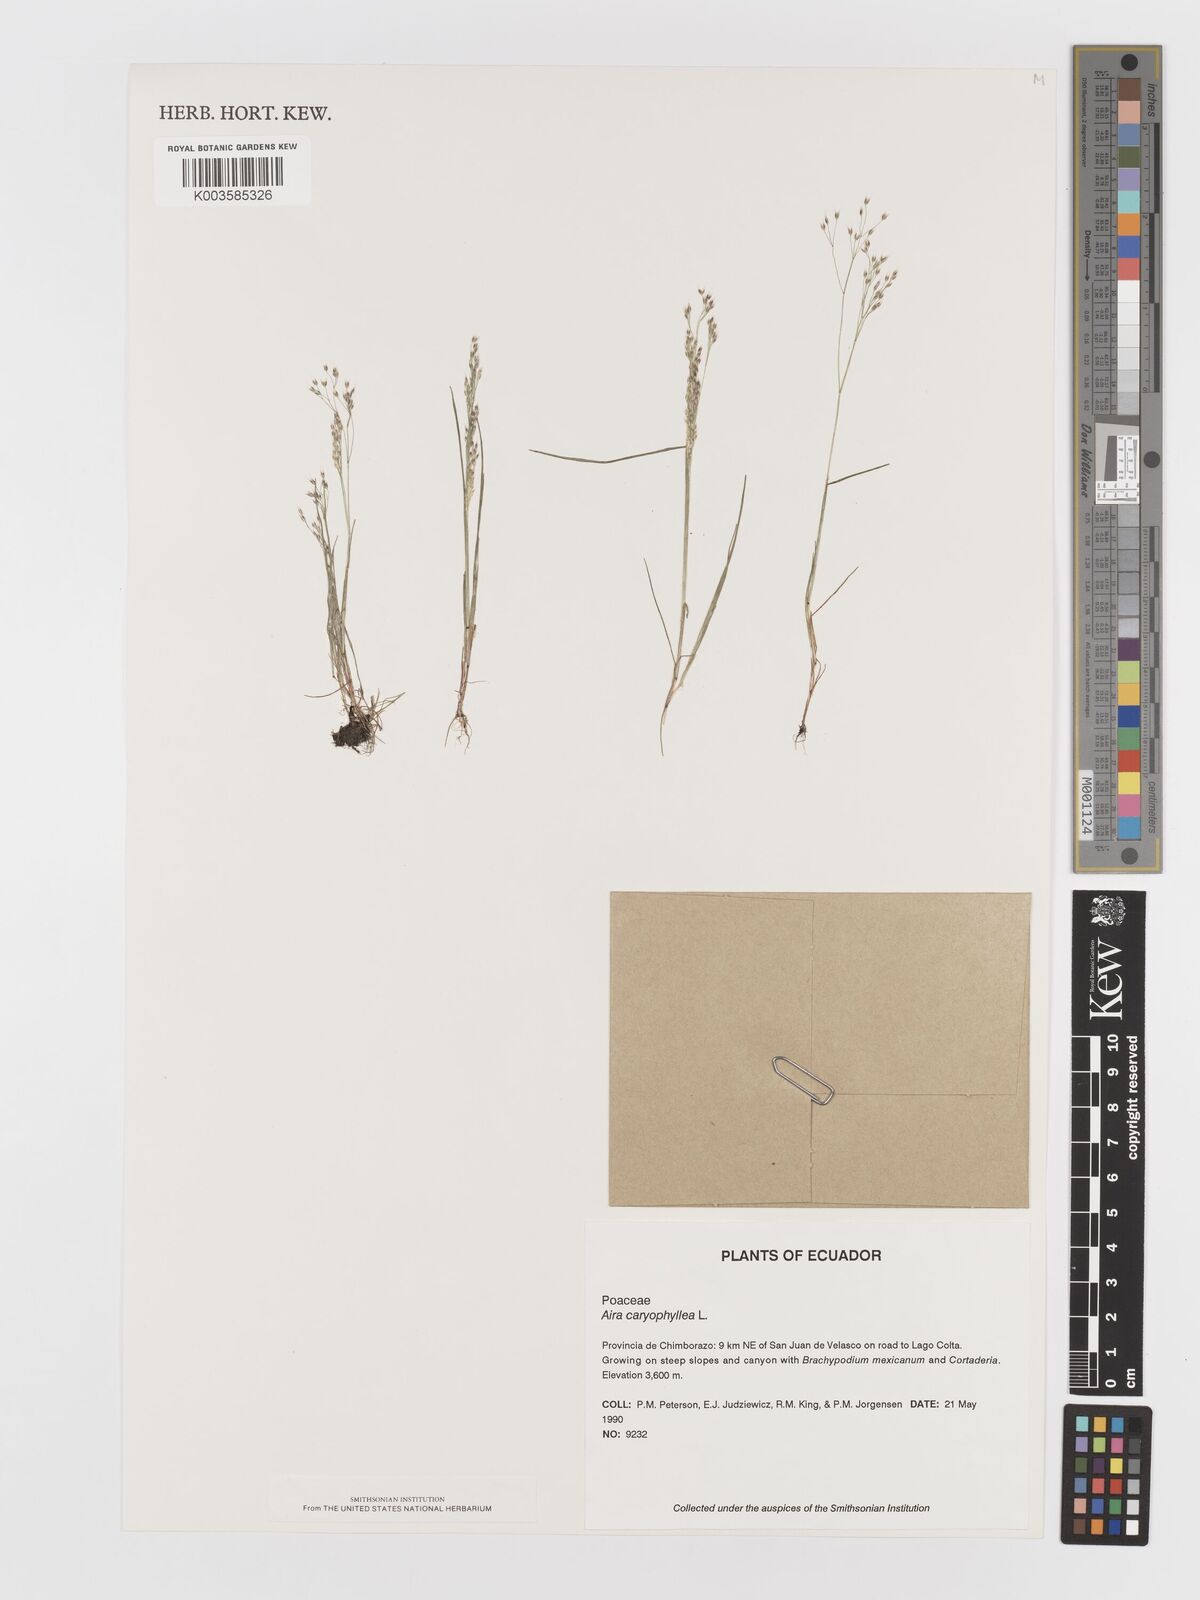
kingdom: Plantae
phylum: Tracheophyta
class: Liliopsida
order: Poales
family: Poaceae
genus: Aira
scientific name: Aira caryophyllea
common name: Silver hairgrass
